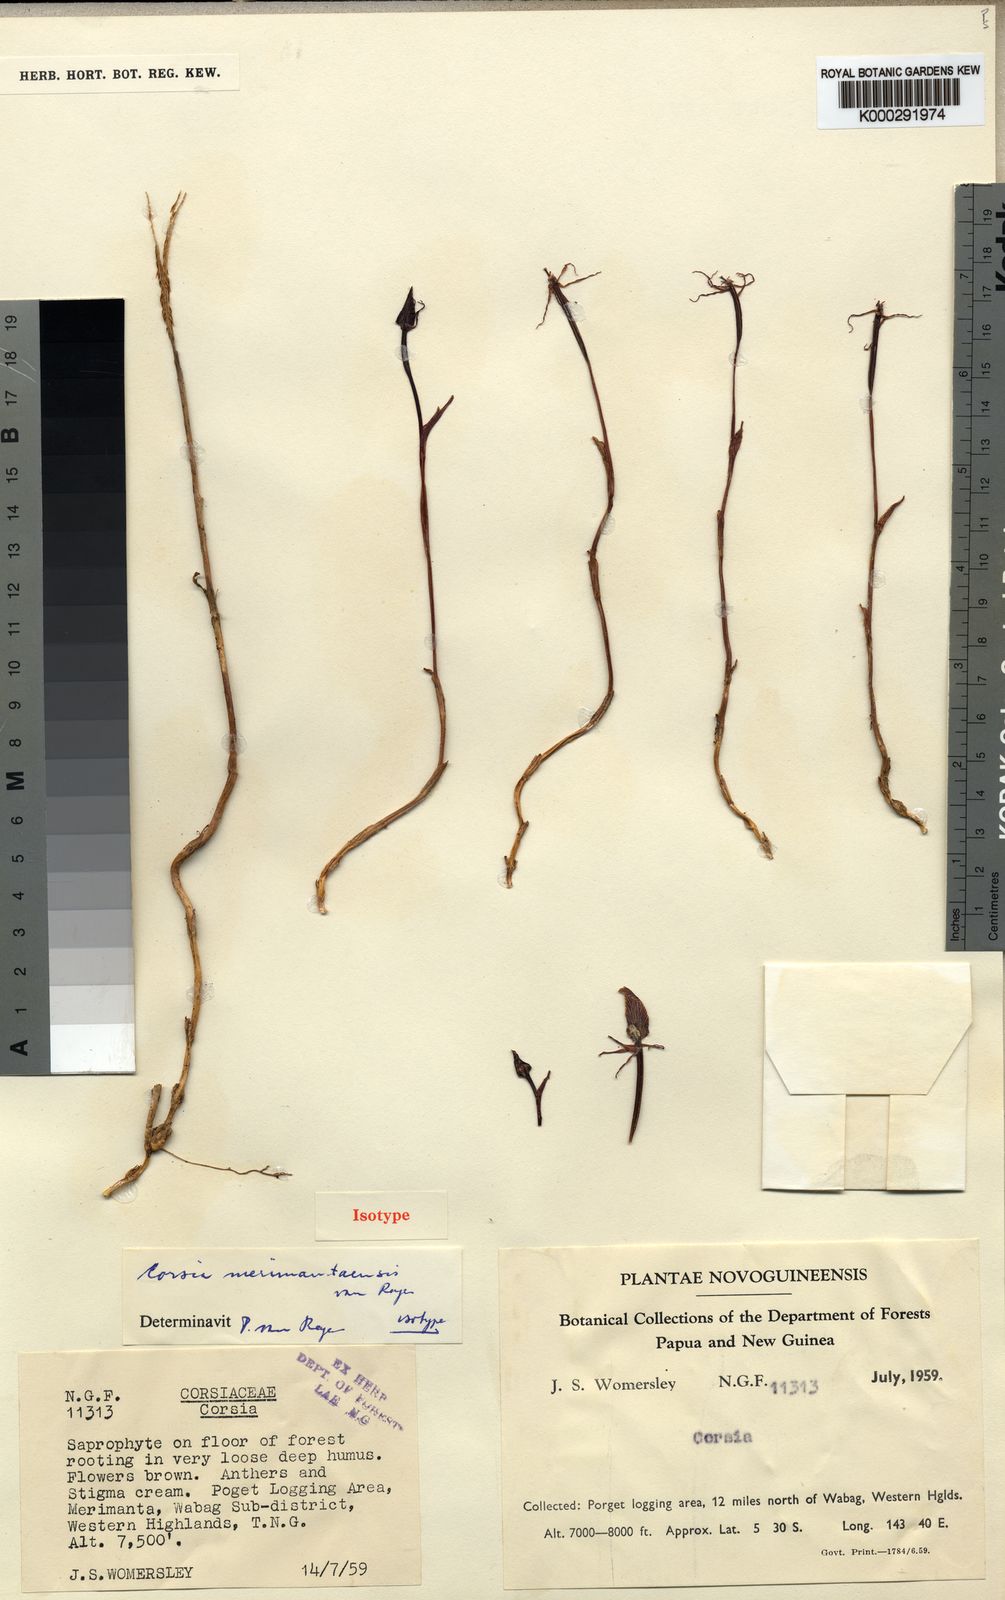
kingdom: Plantae
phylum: Tracheophyta
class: Liliopsida
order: Liliales
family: Corsiaceae
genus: Corsia
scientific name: Corsia merimantaensis
